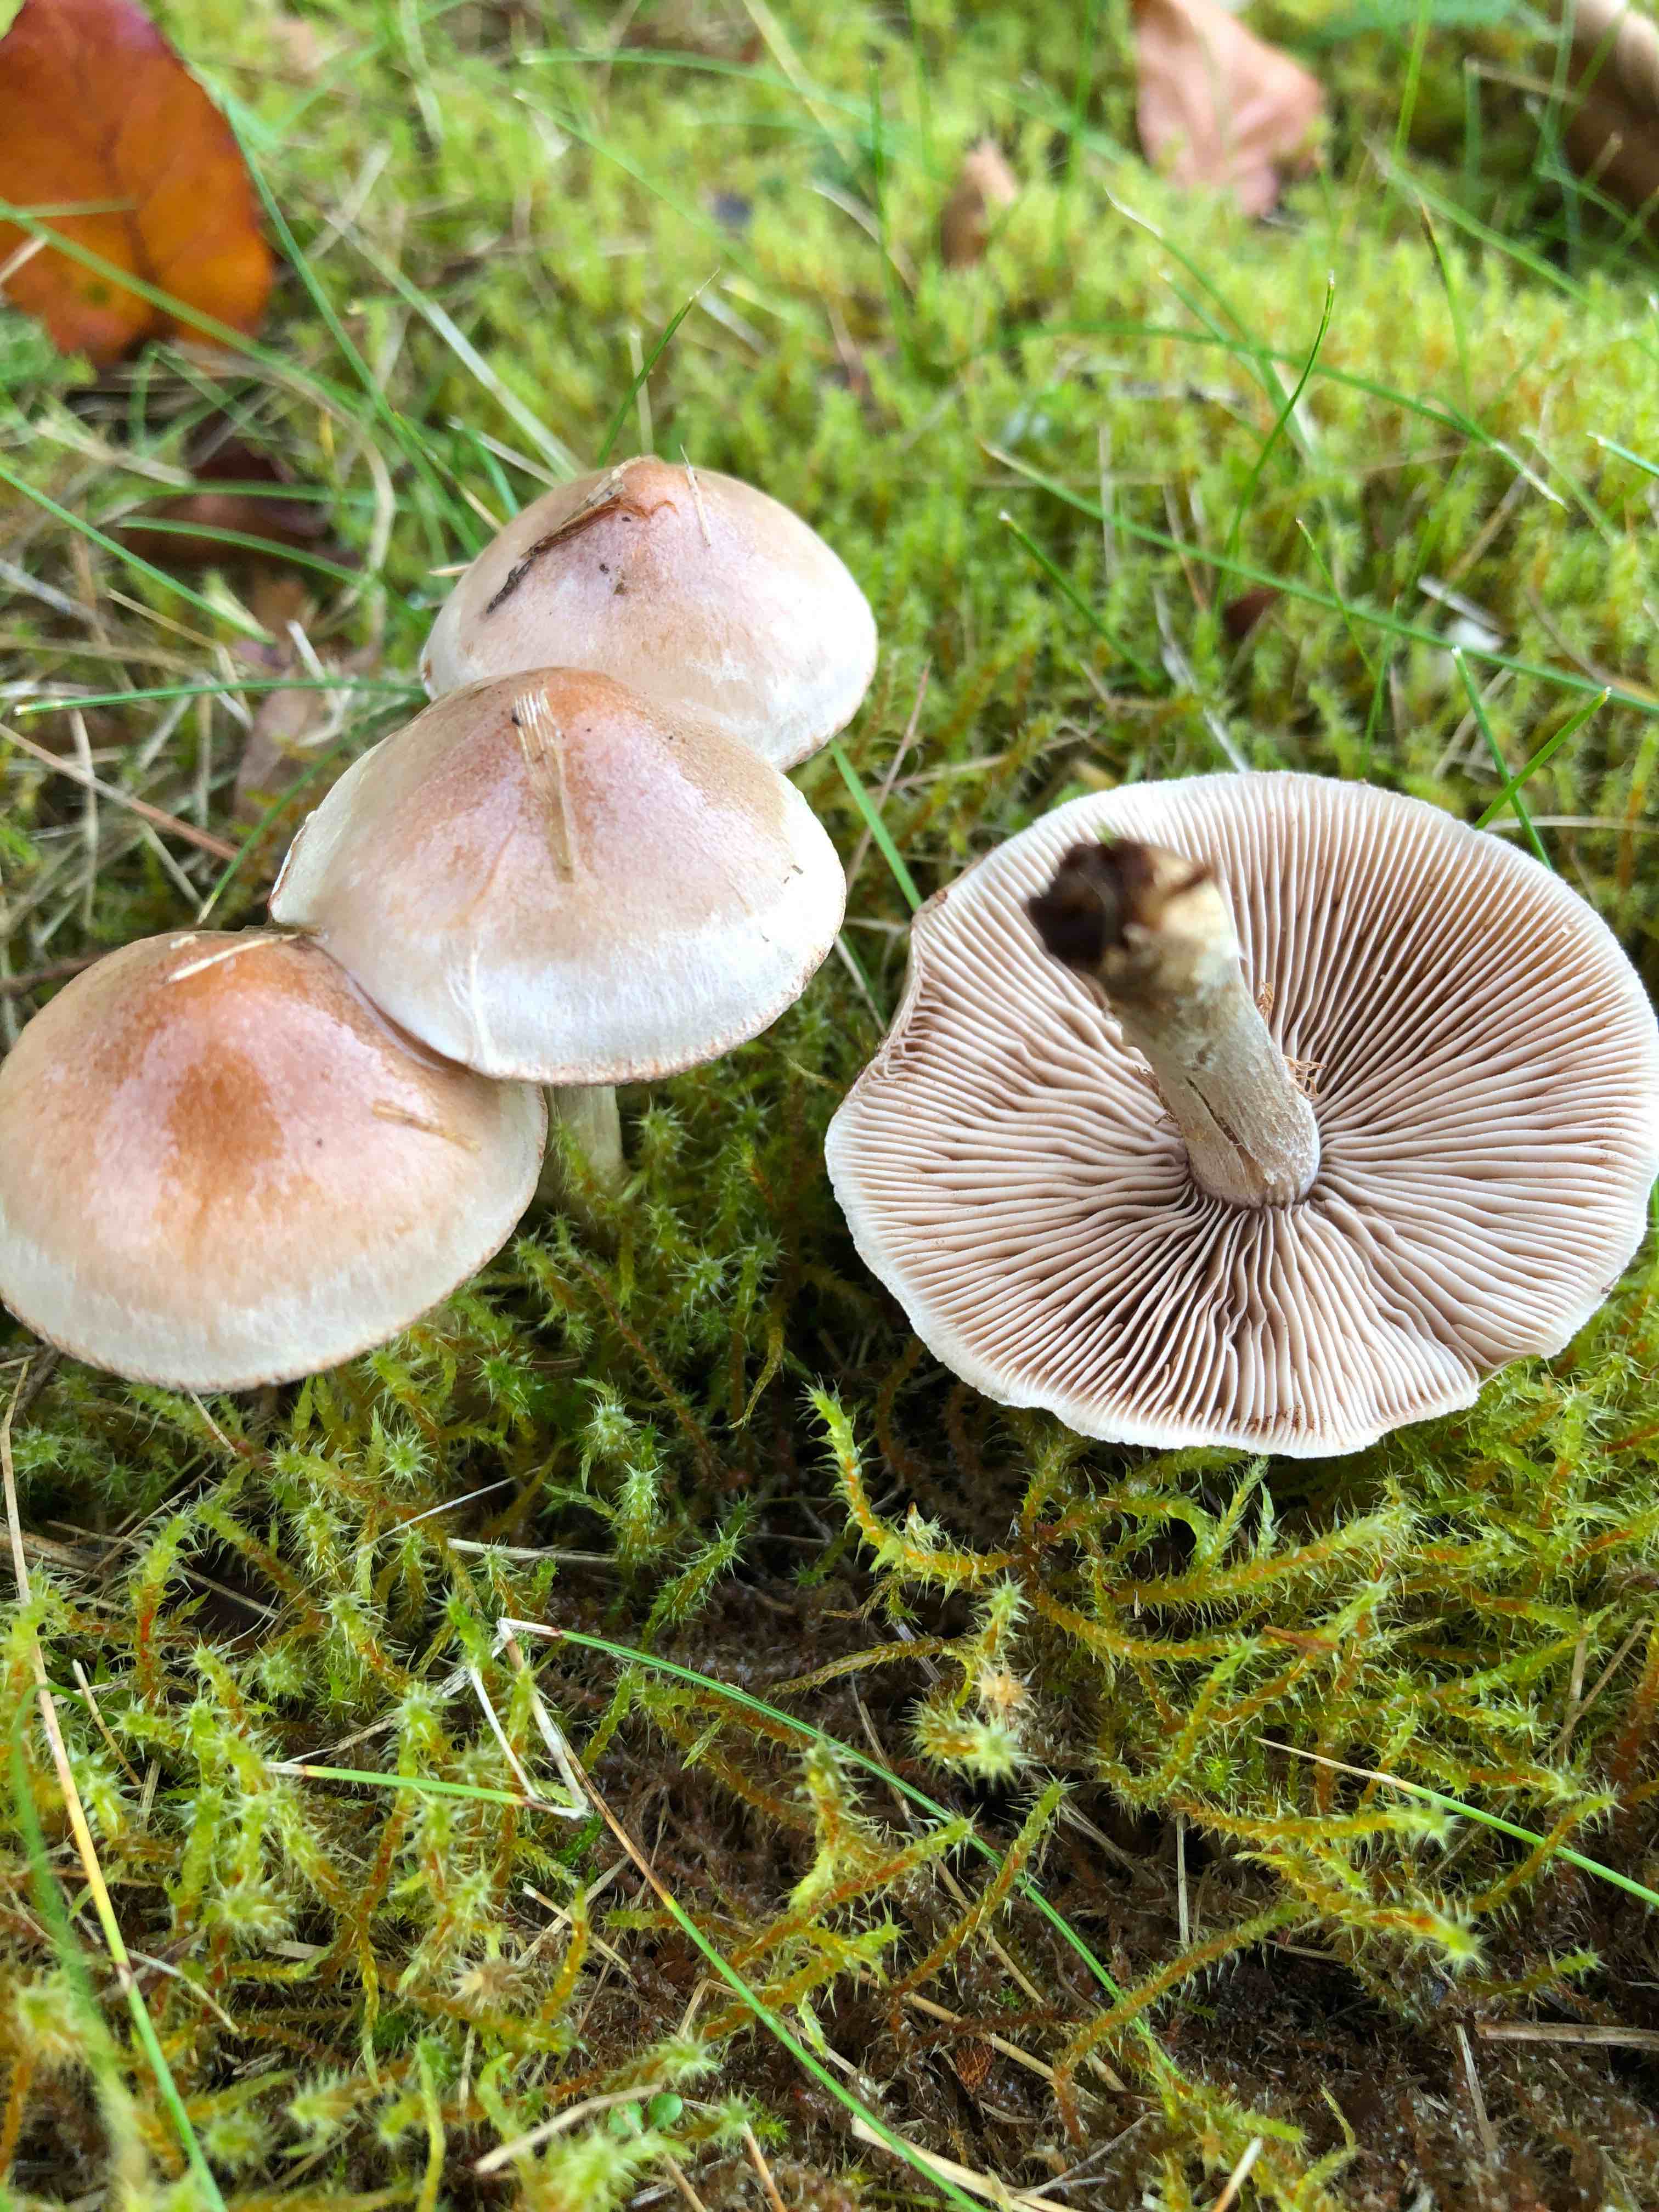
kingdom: Fungi
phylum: Basidiomycota
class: Agaricomycetes
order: Agaricales
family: Hymenogastraceae
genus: Hebeloma
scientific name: Hebeloma
